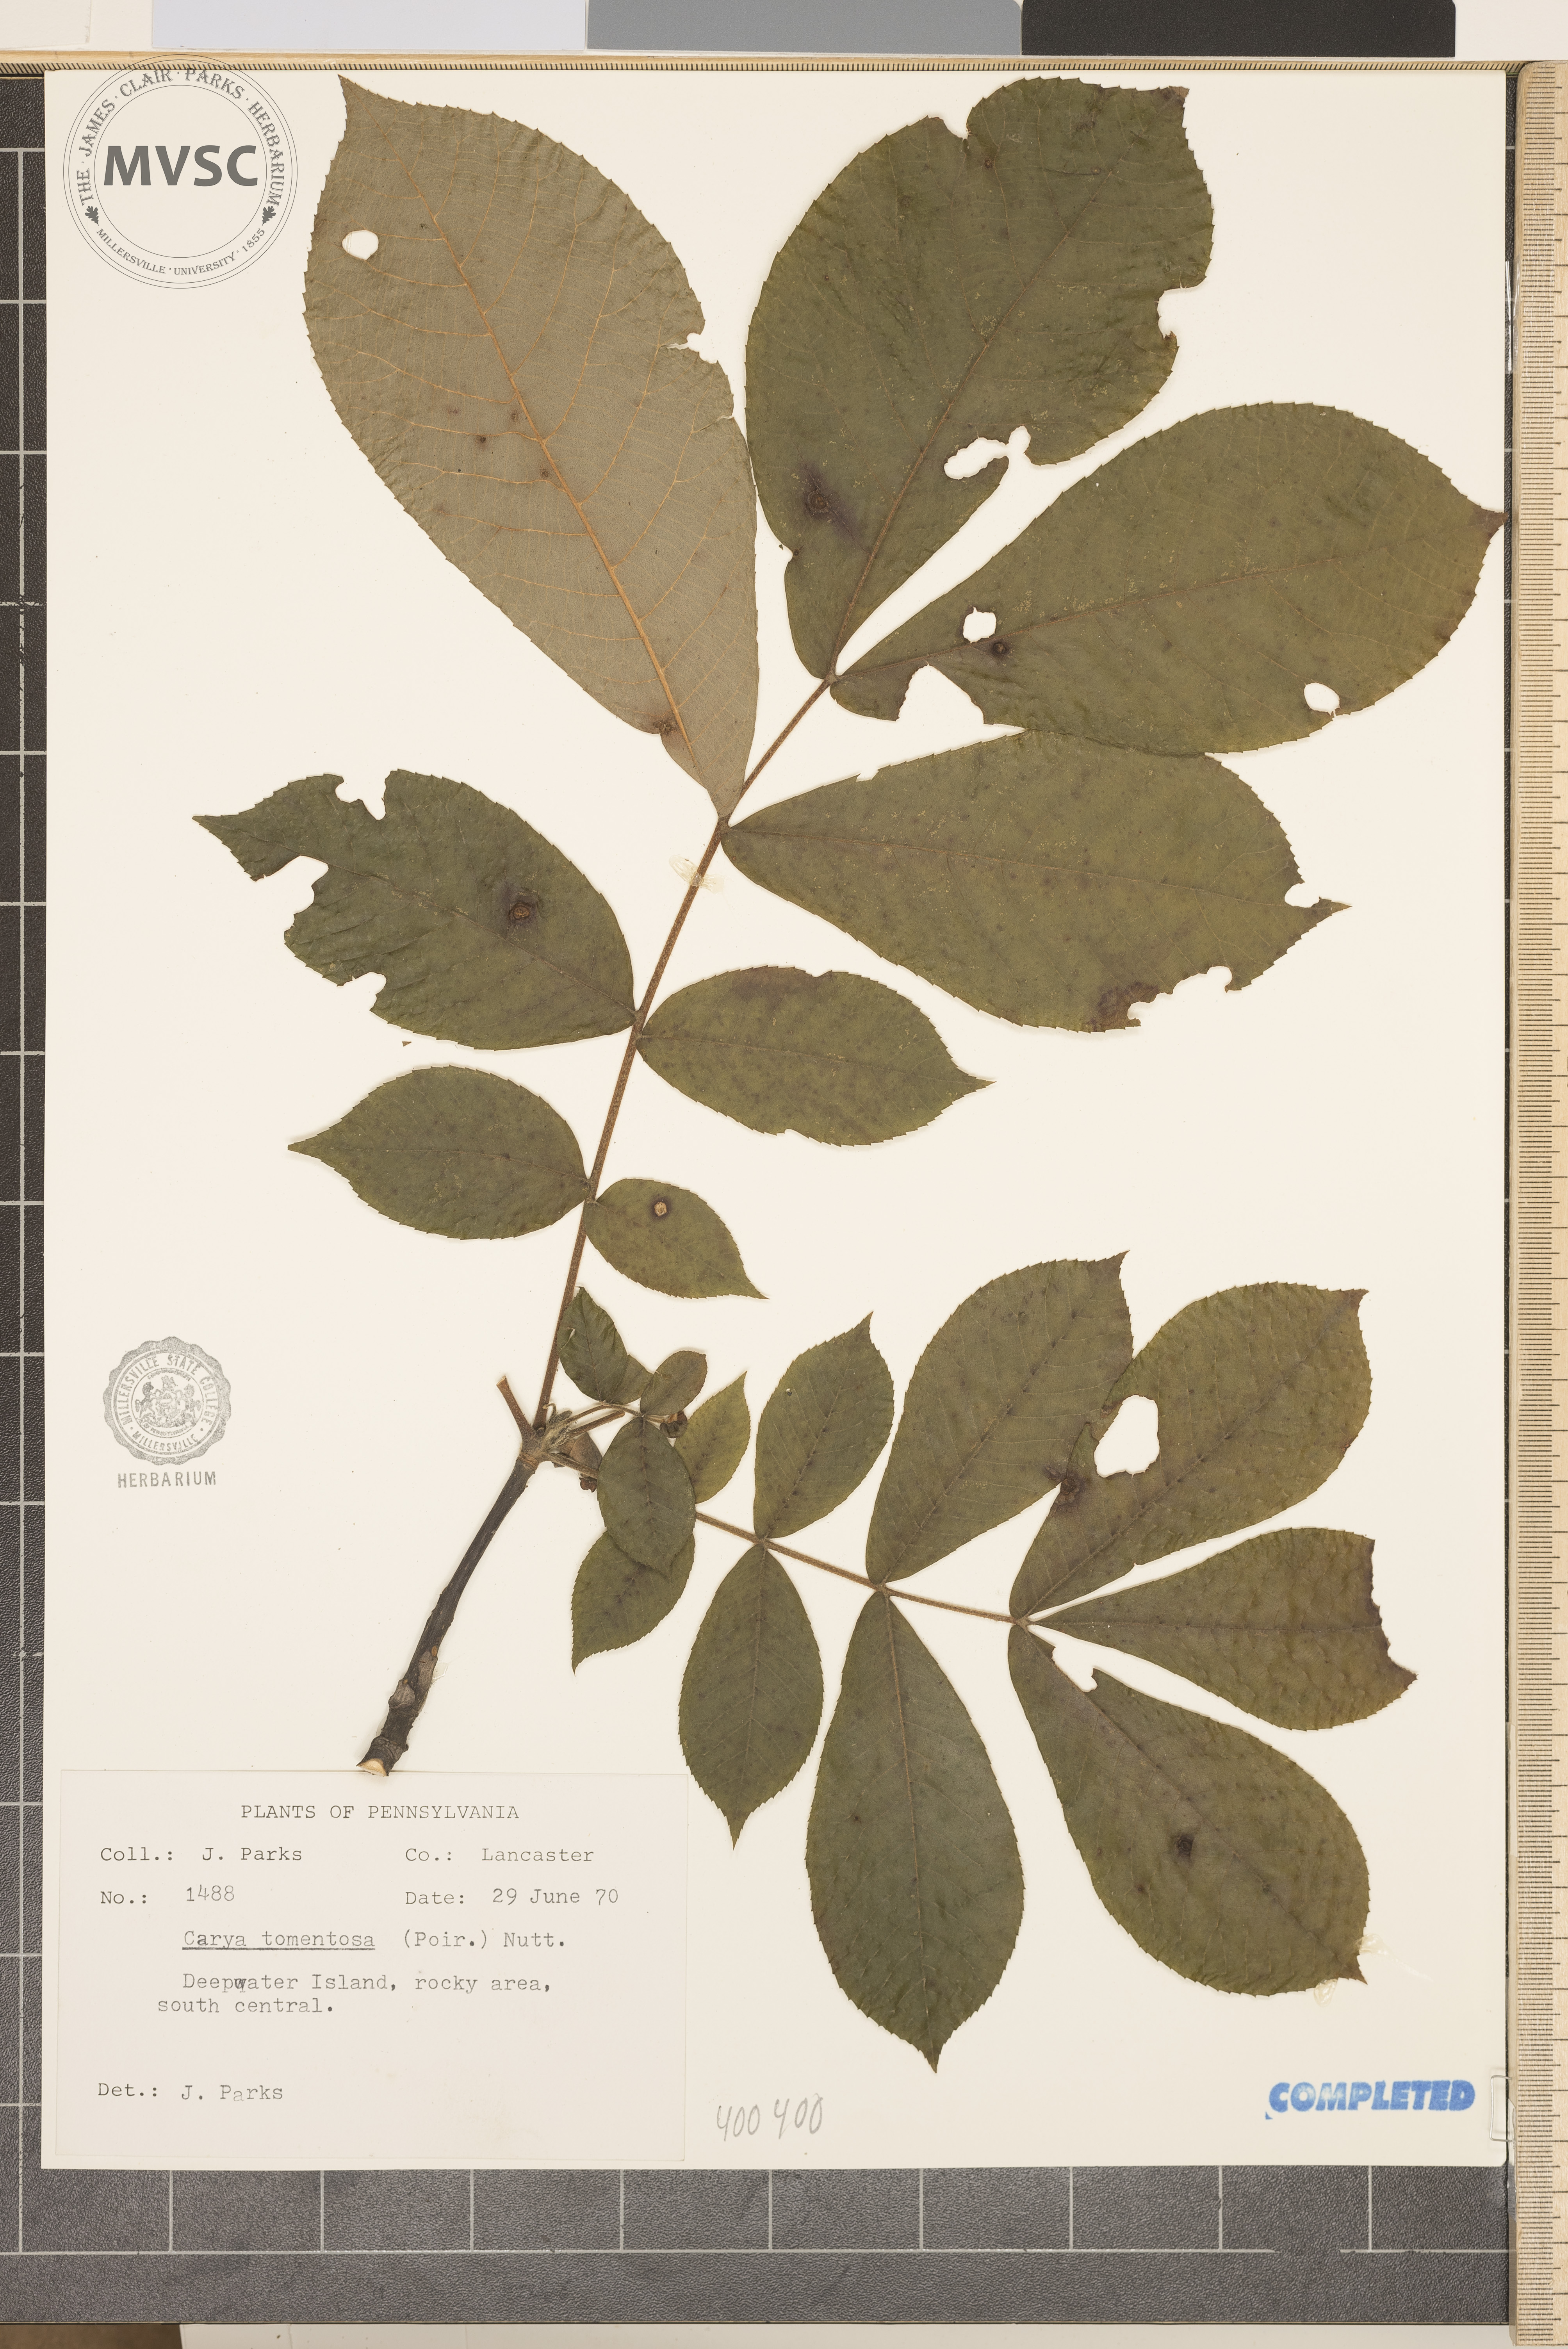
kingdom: Plantae
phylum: Tracheophyta
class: Magnoliopsida
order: Fagales
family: Juglandaceae
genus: Carya
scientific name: Carya alba
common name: mockernut hickory
